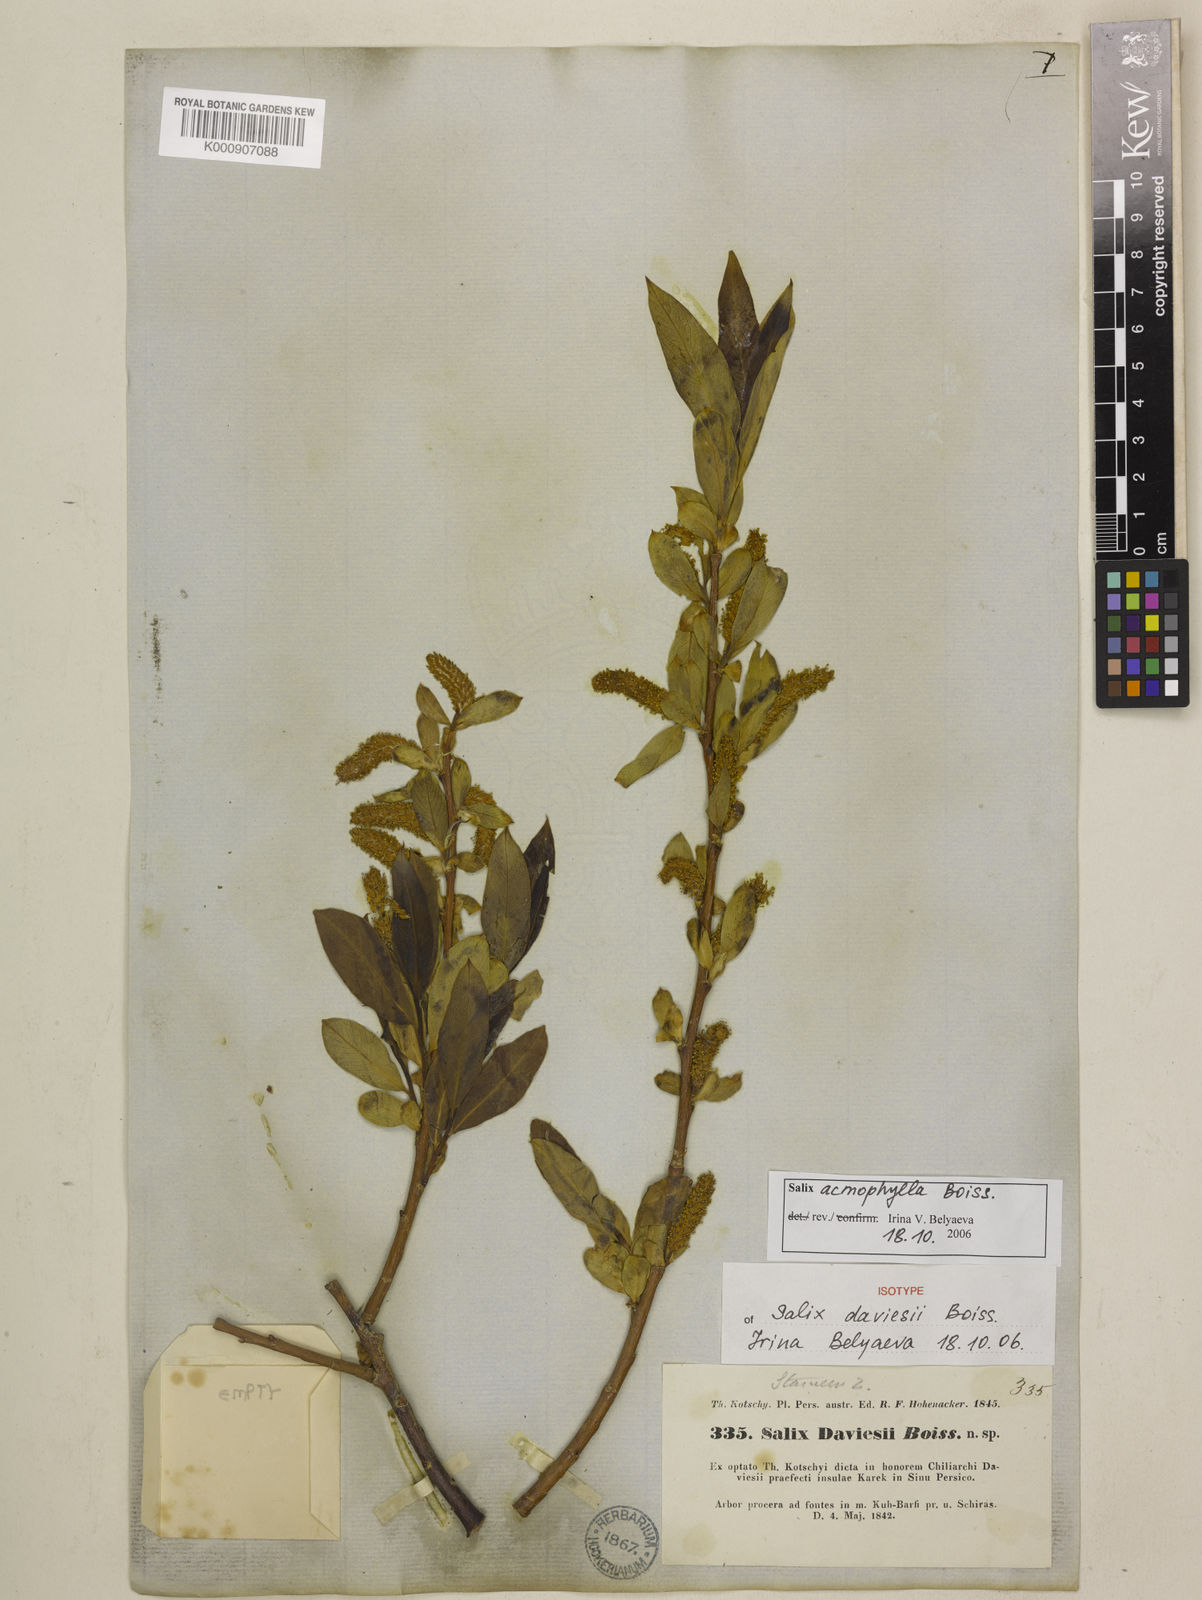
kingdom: Plantae
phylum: Tracheophyta
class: Magnoliopsida
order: Malpighiales
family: Salicaceae
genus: Salix
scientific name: Salix acmophylla
